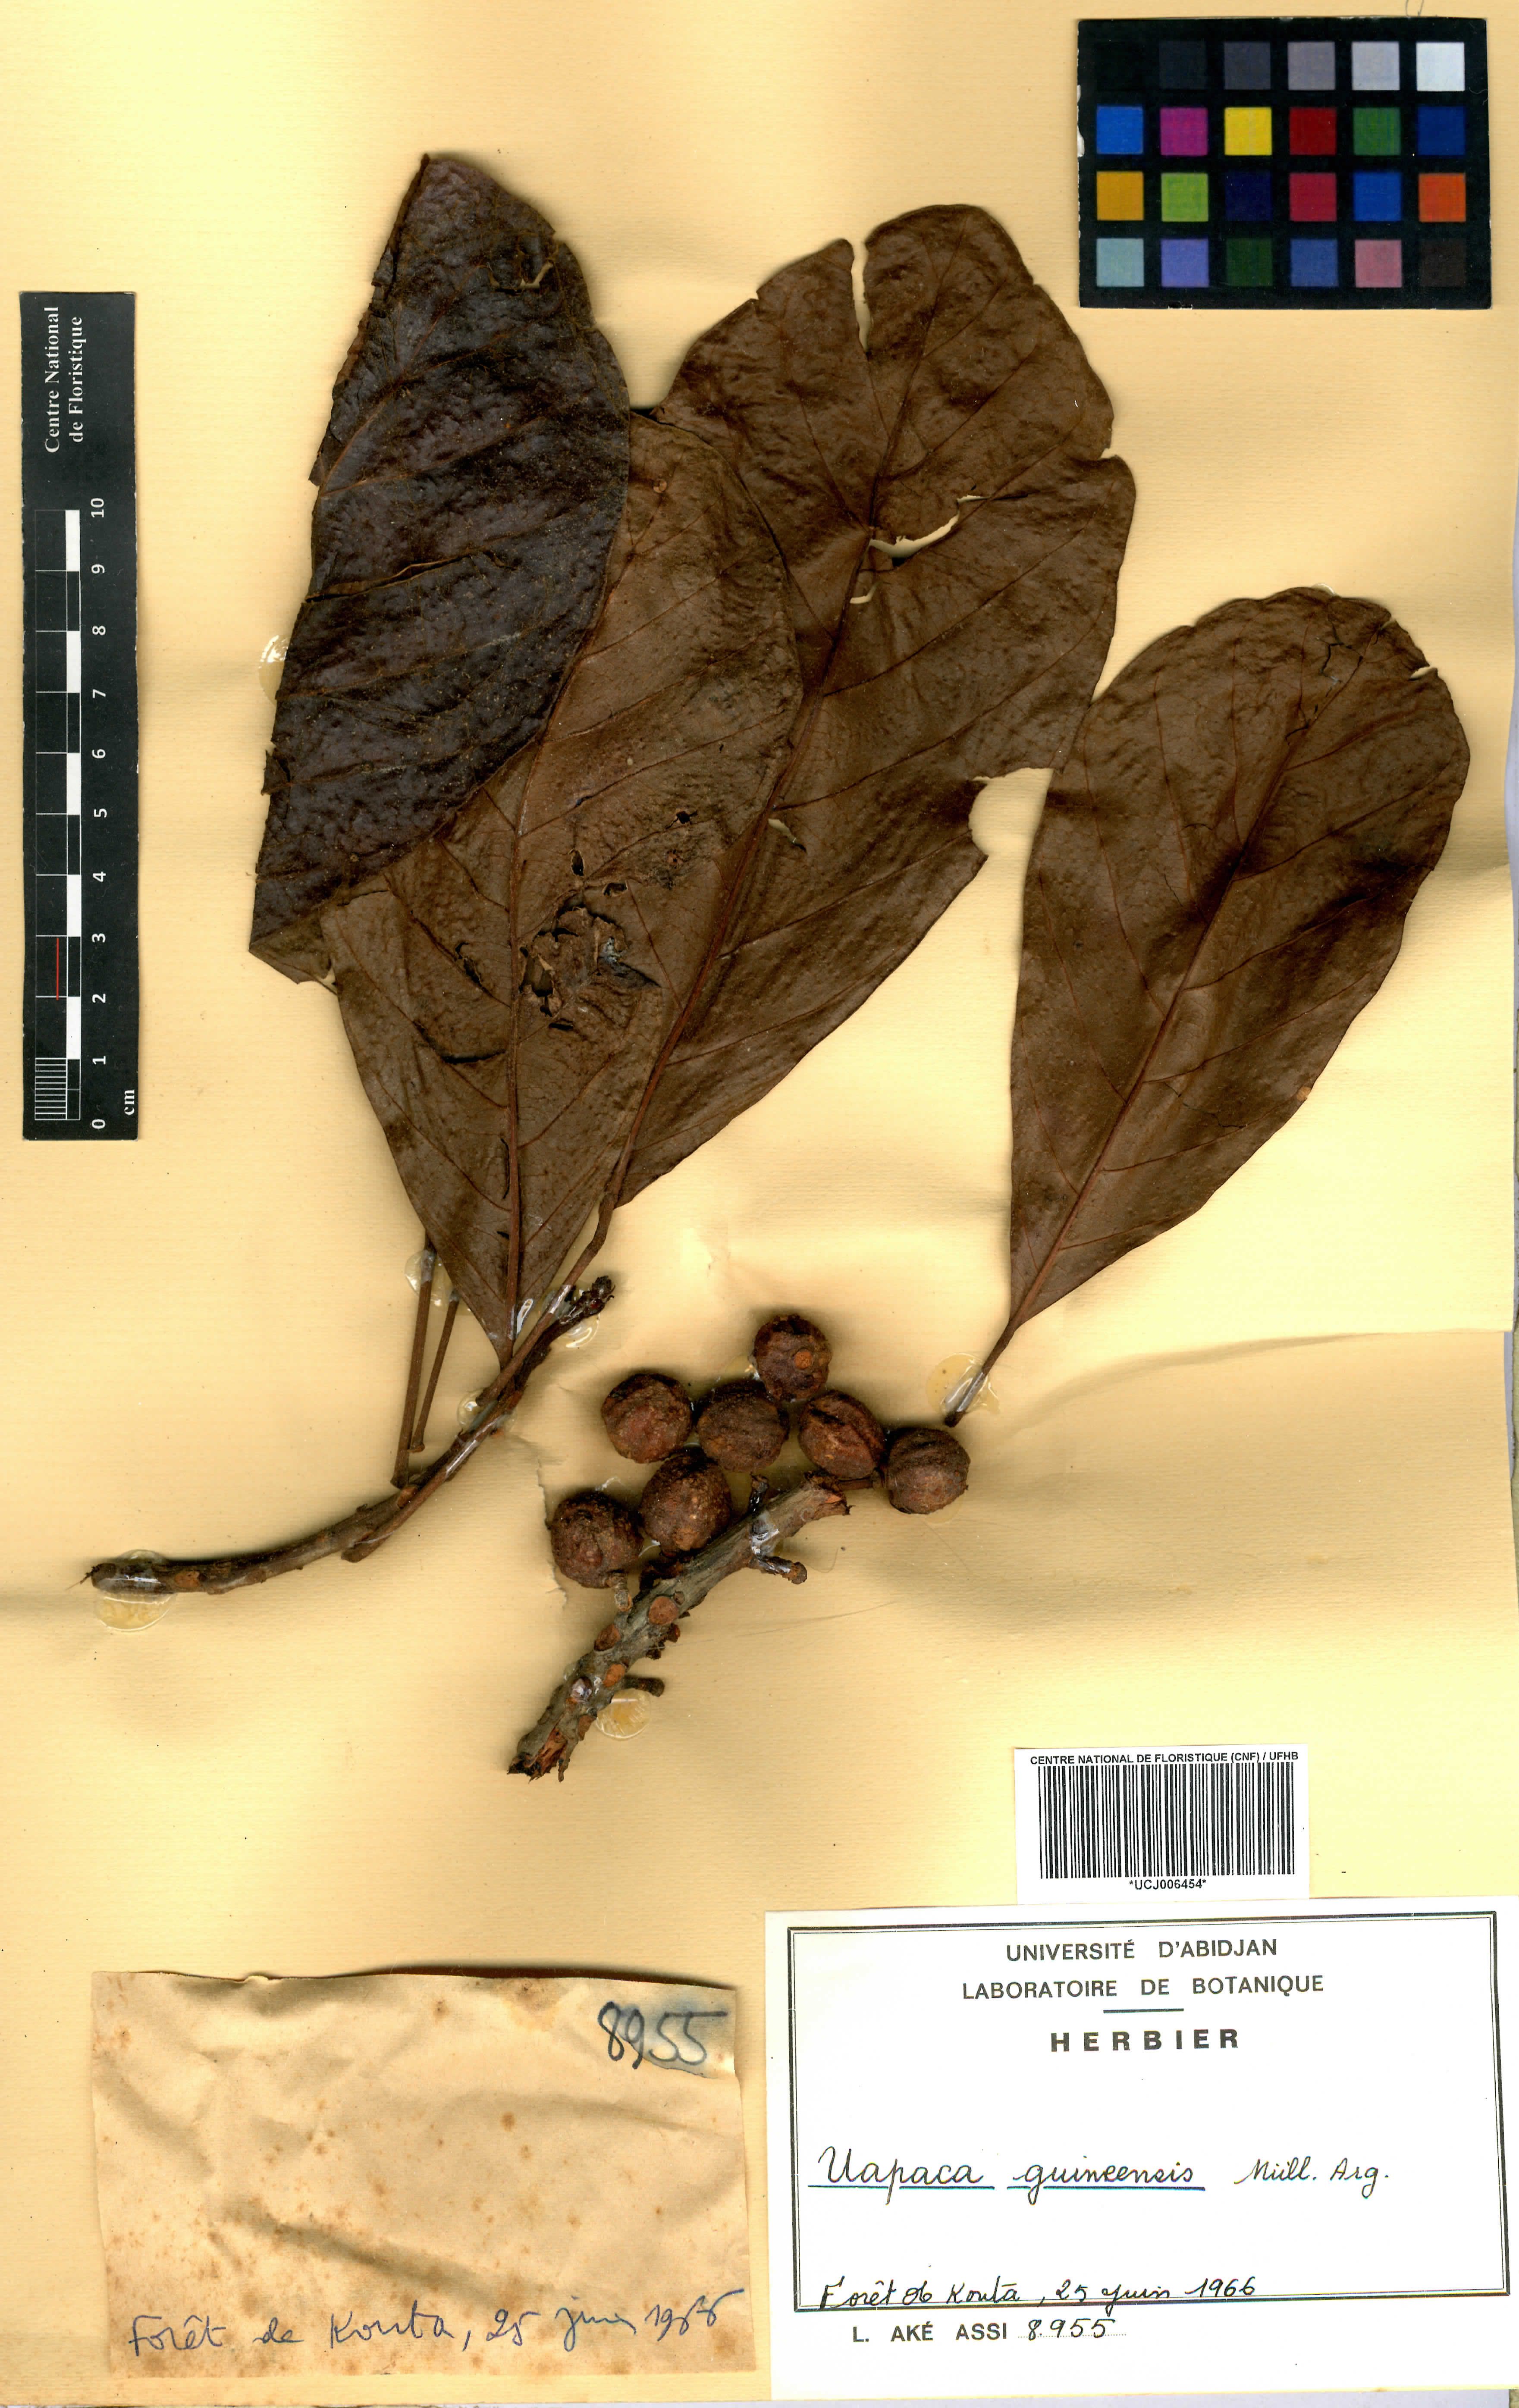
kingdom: Plantae
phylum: Tracheophyta
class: Magnoliopsida
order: Malpighiales
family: Phyllanthaceae
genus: Uapaca
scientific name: Uapaca guineensis
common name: Sugar-plum
